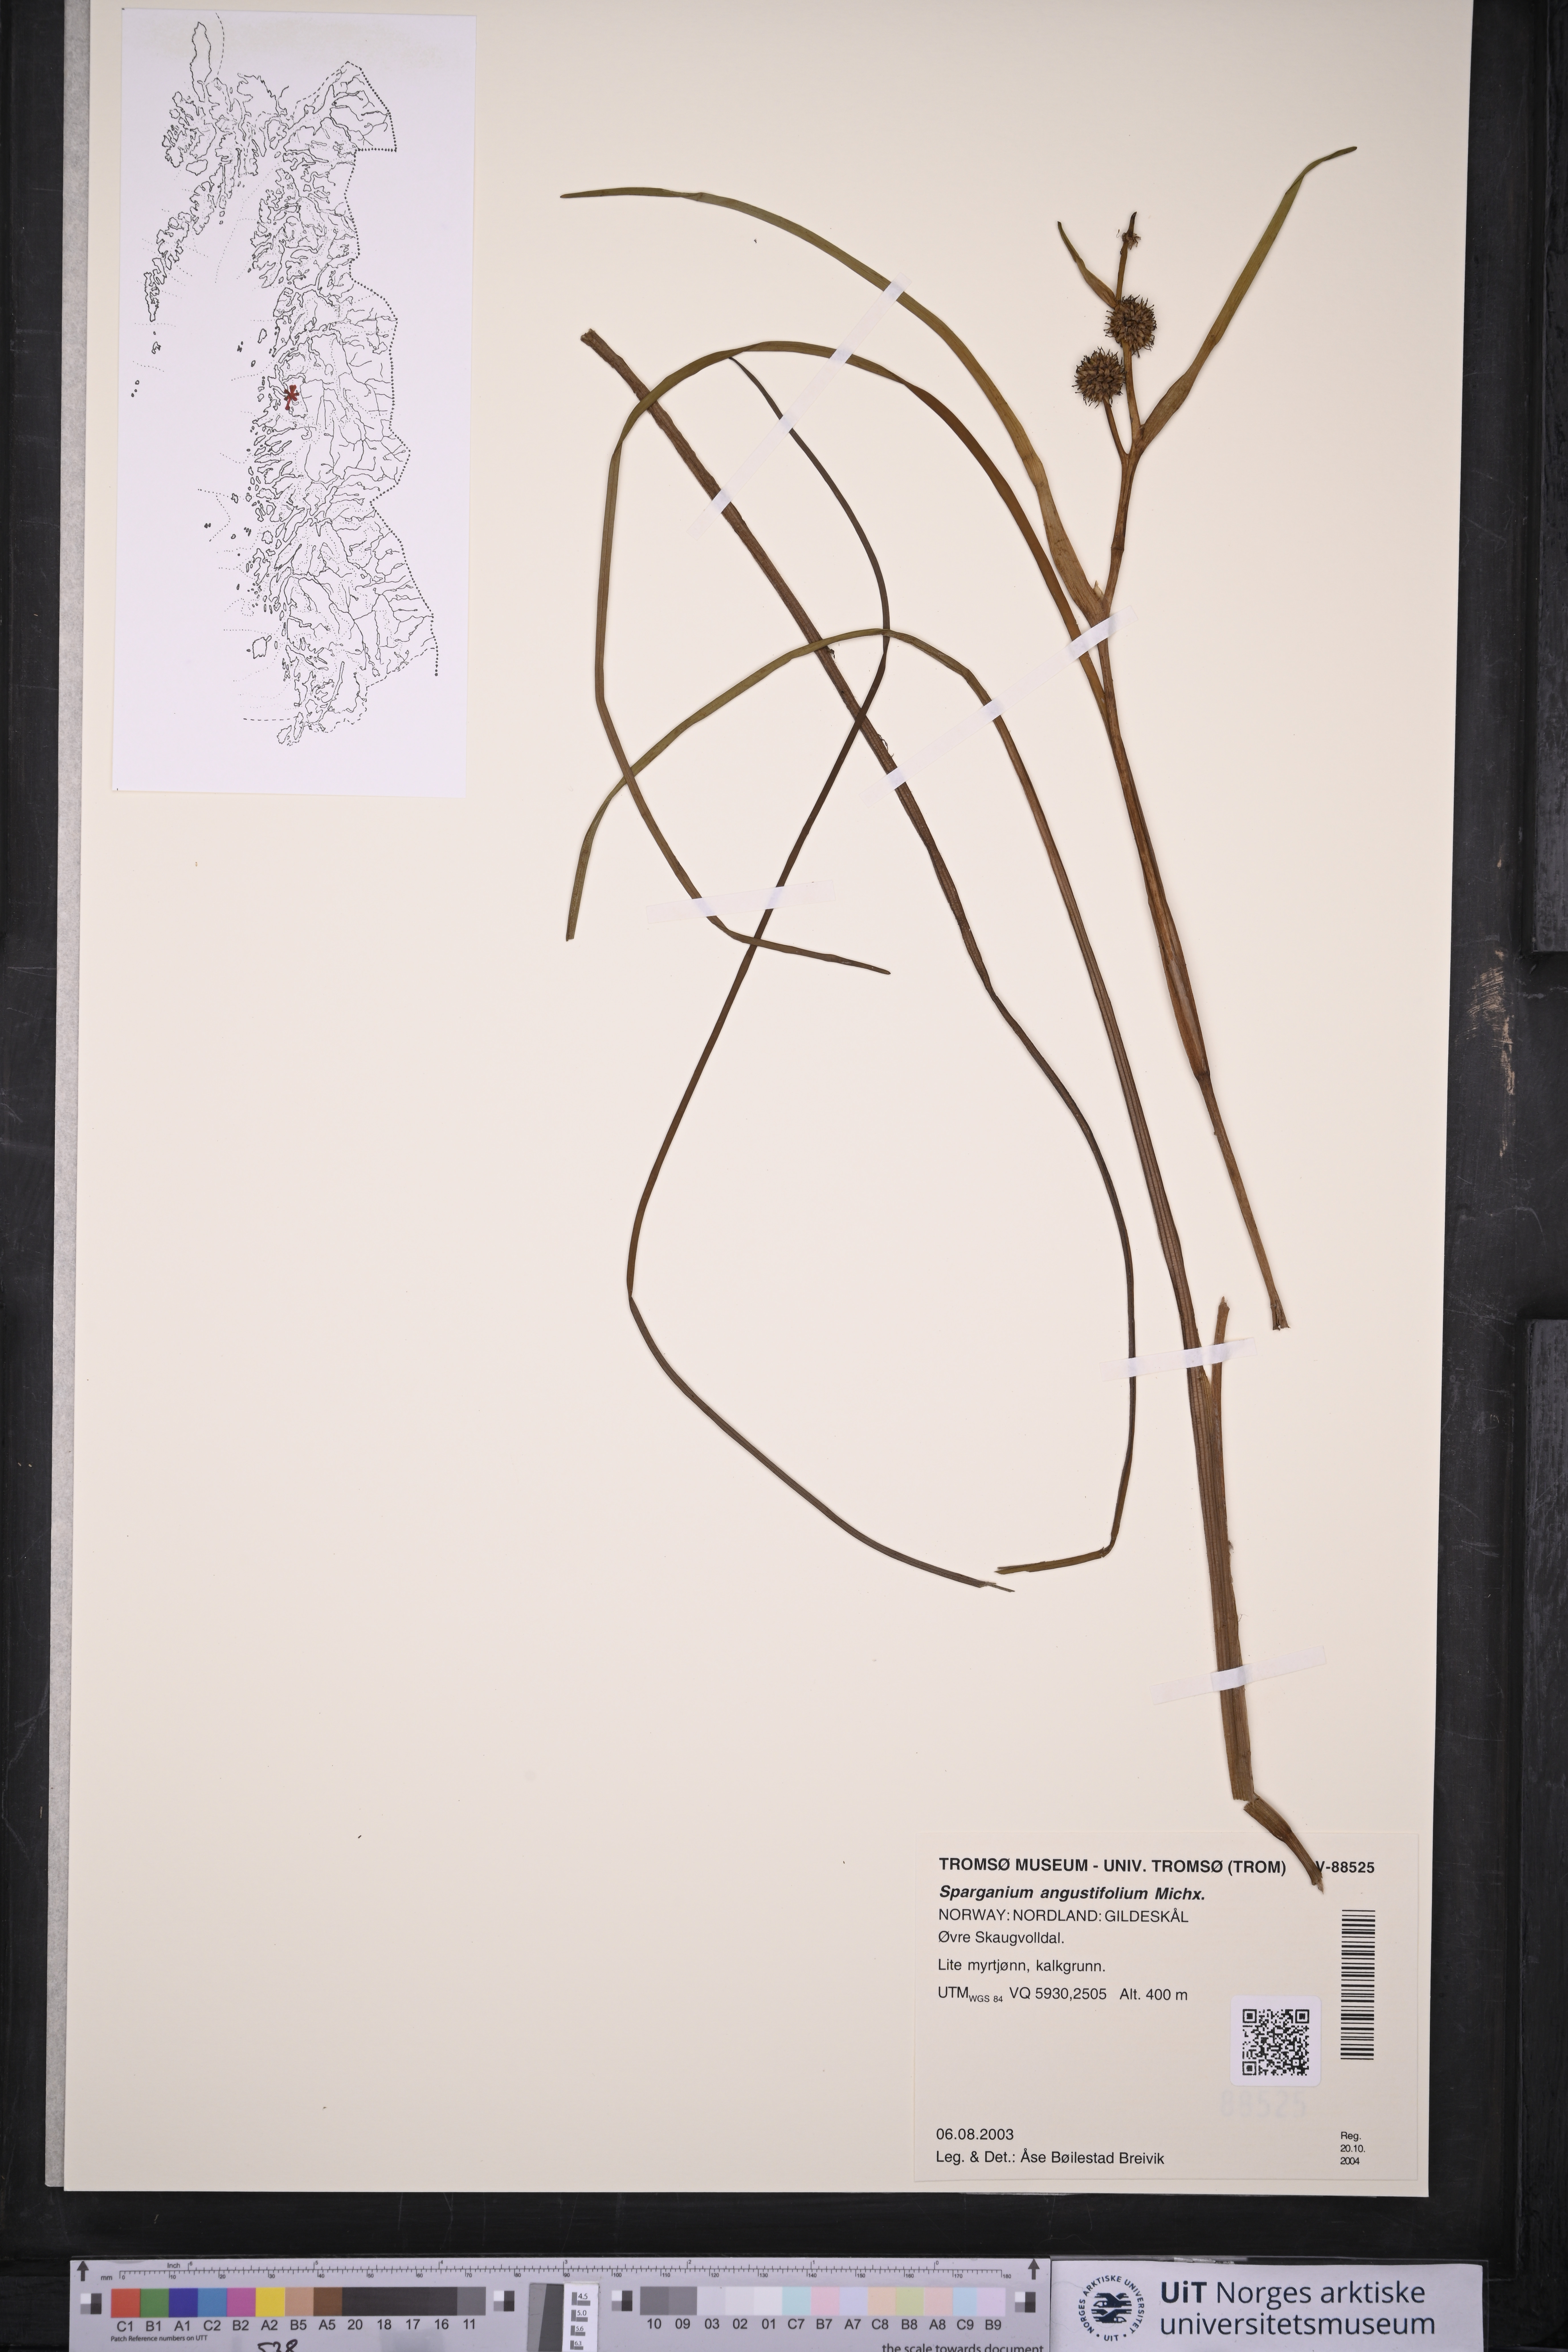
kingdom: Plantae
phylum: Tracheophyta
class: Liliopsida
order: Poales
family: Typhaceae
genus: Sparganium
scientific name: Sparganium angustifolium
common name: Floating bur-reed
